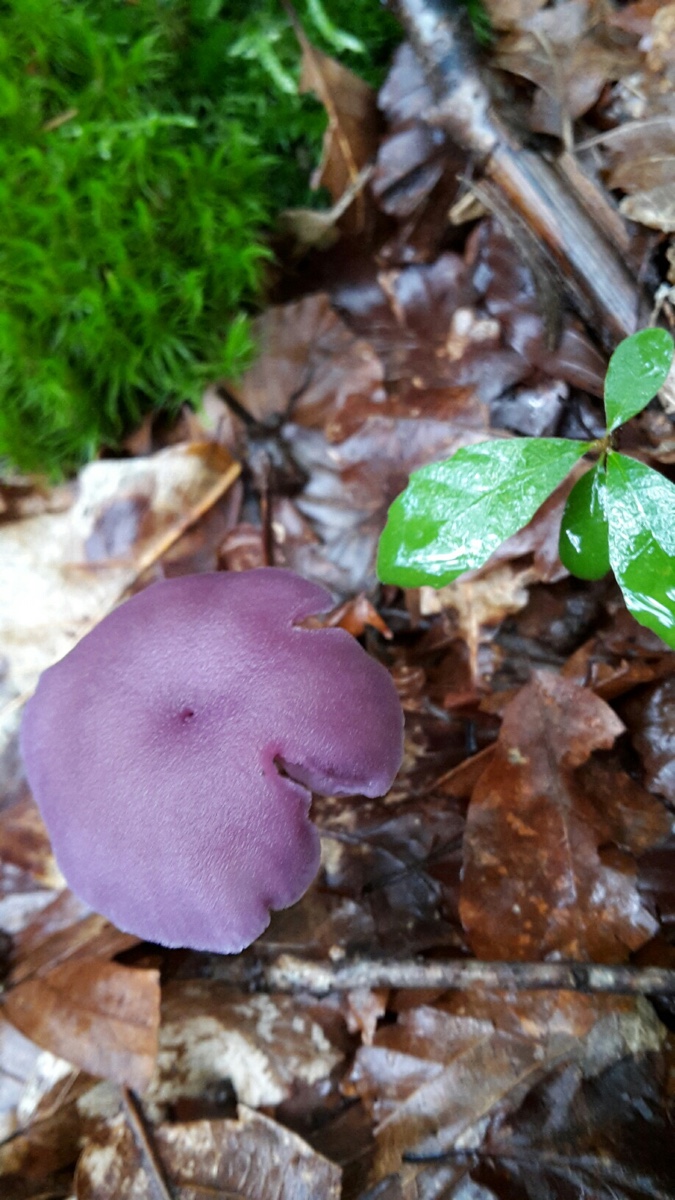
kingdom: Fungi
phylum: Basidiomycota
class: Agaricomycetes
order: Agaricales
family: Hydnangiaceae
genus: Laccaria
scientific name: Laccaria amethystina
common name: violet ametysthat
